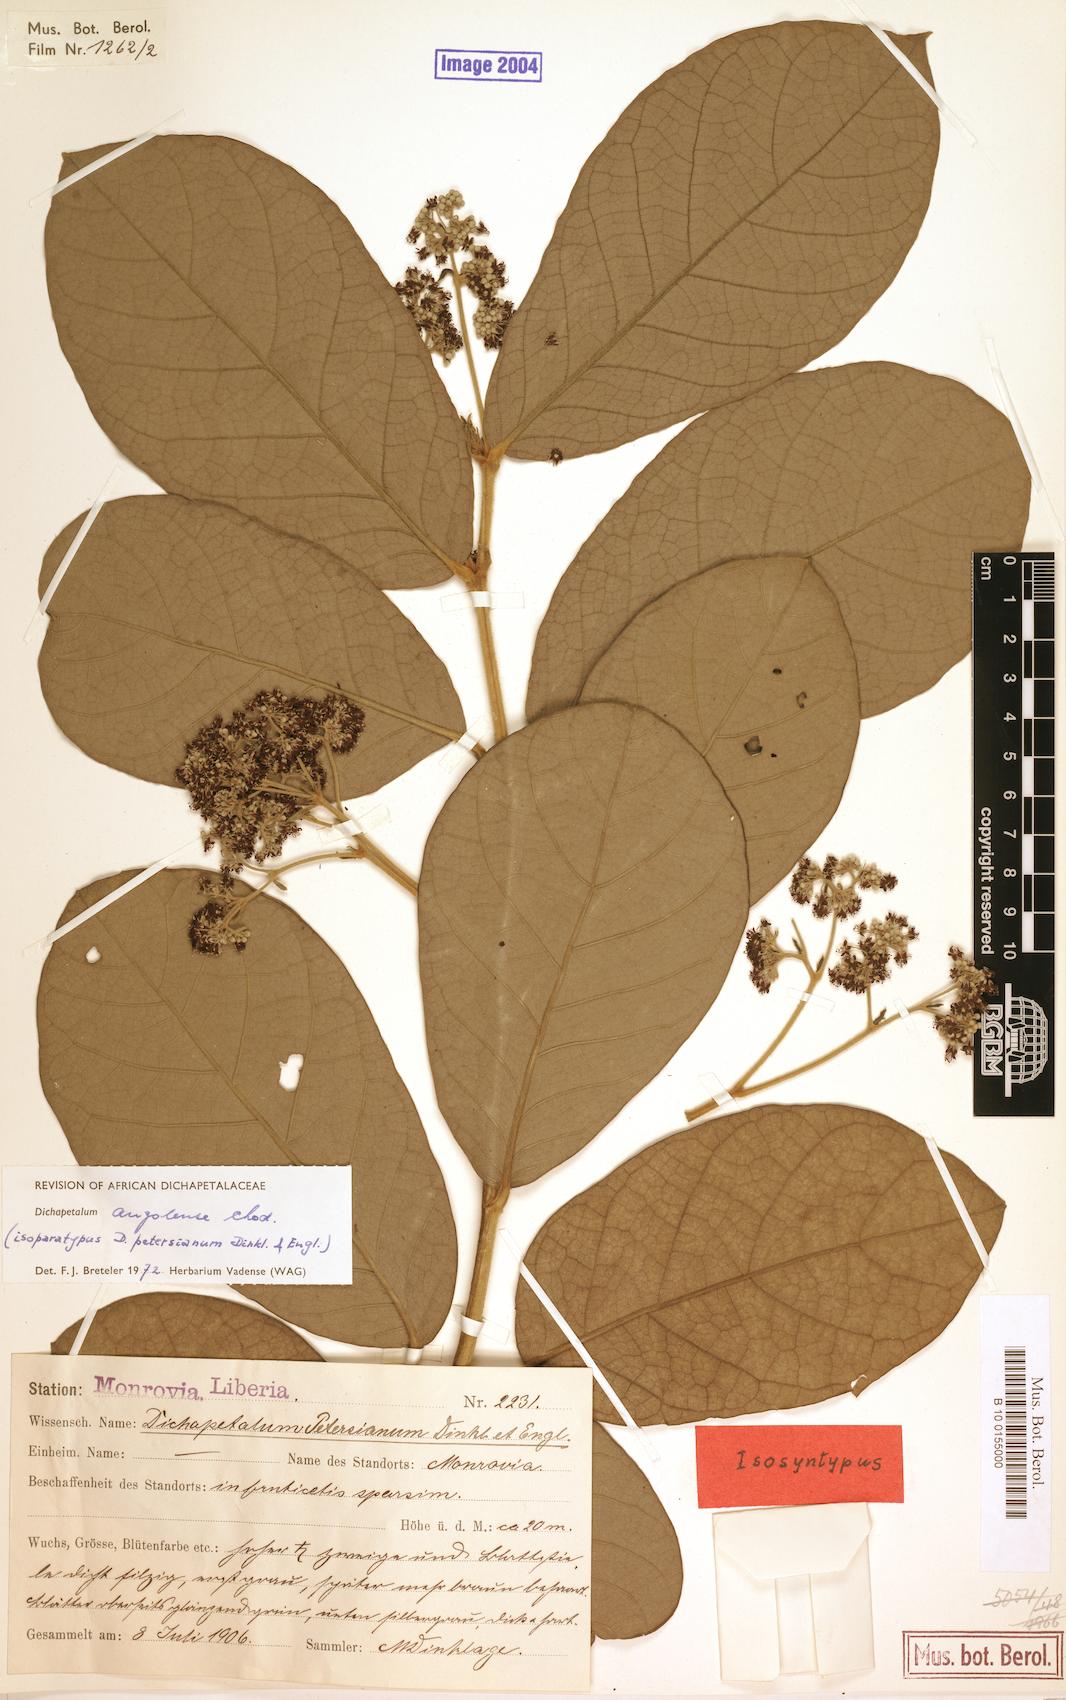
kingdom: Plantae
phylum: Tracheophyta
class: Magnoliopsida
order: Malpighiales
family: Dichapetalaceae
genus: Dichapetalum
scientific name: Dichapetalum angolense
